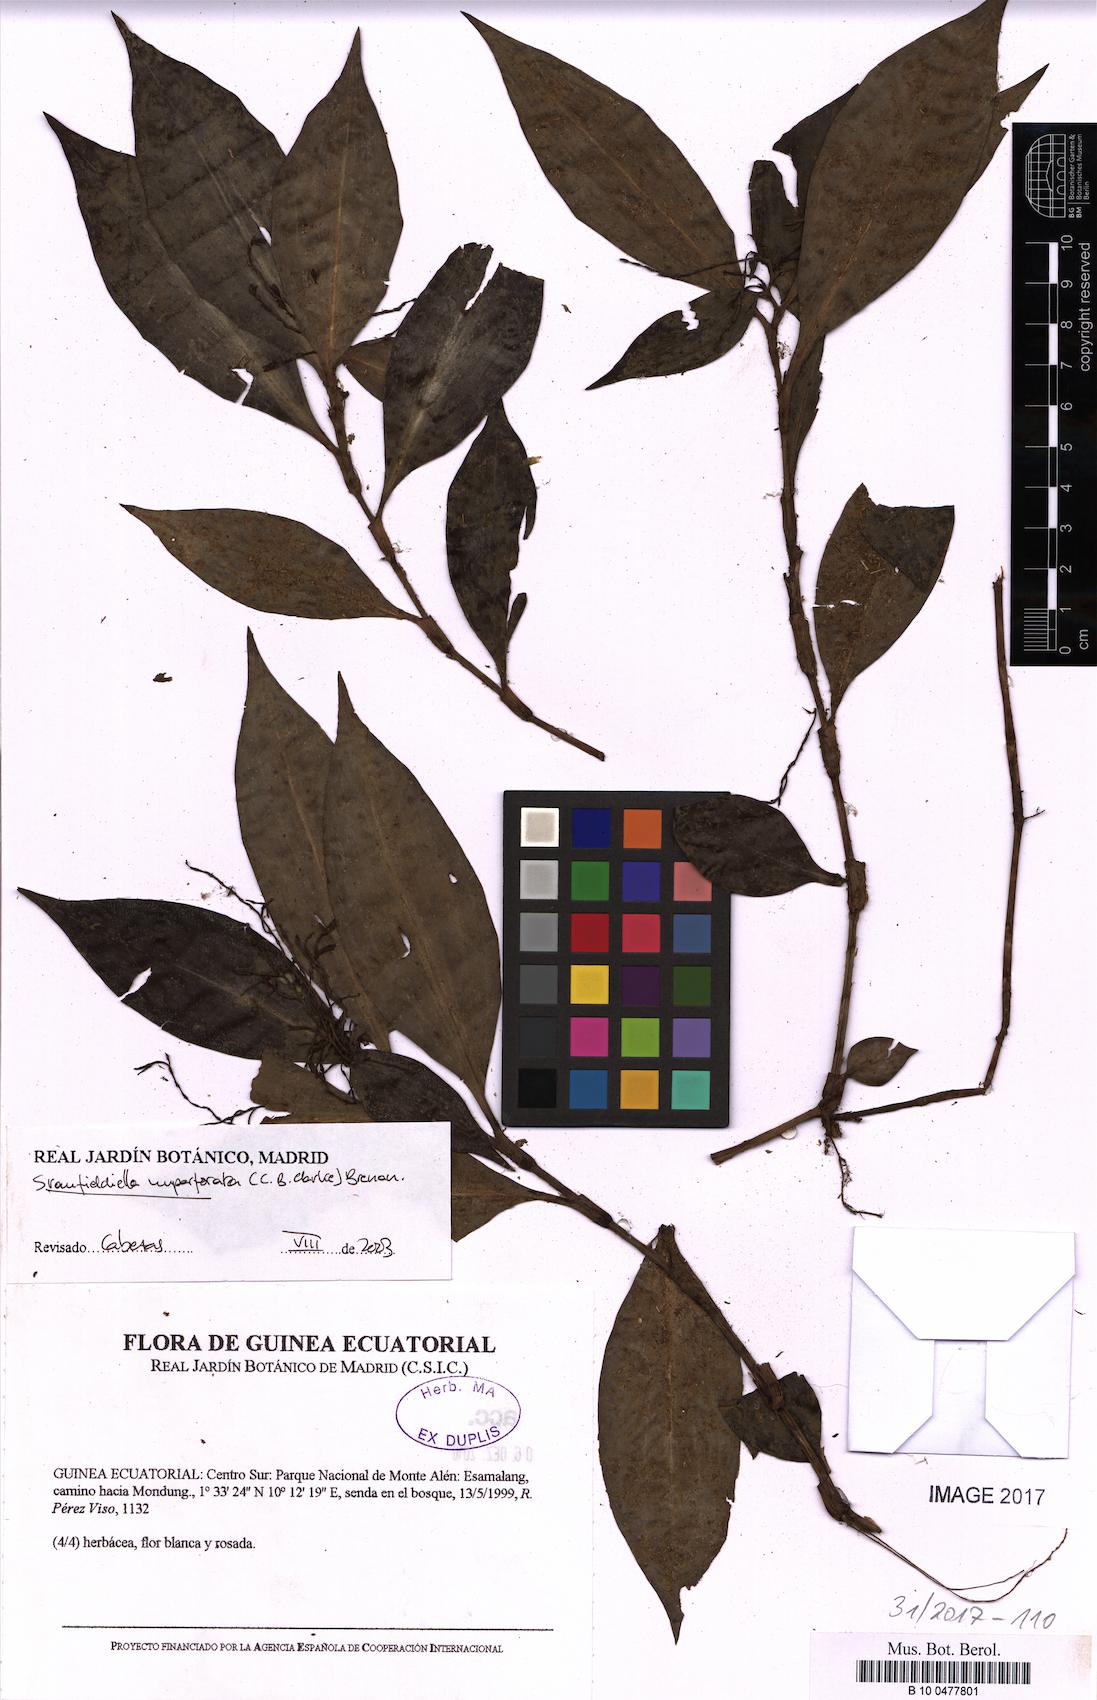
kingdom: Plantae
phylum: Tracheophyta
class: Liliopsida
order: Commelinales
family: Commelinaceae
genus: Stanfieldiella
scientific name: Stanfieldiella imperforata
